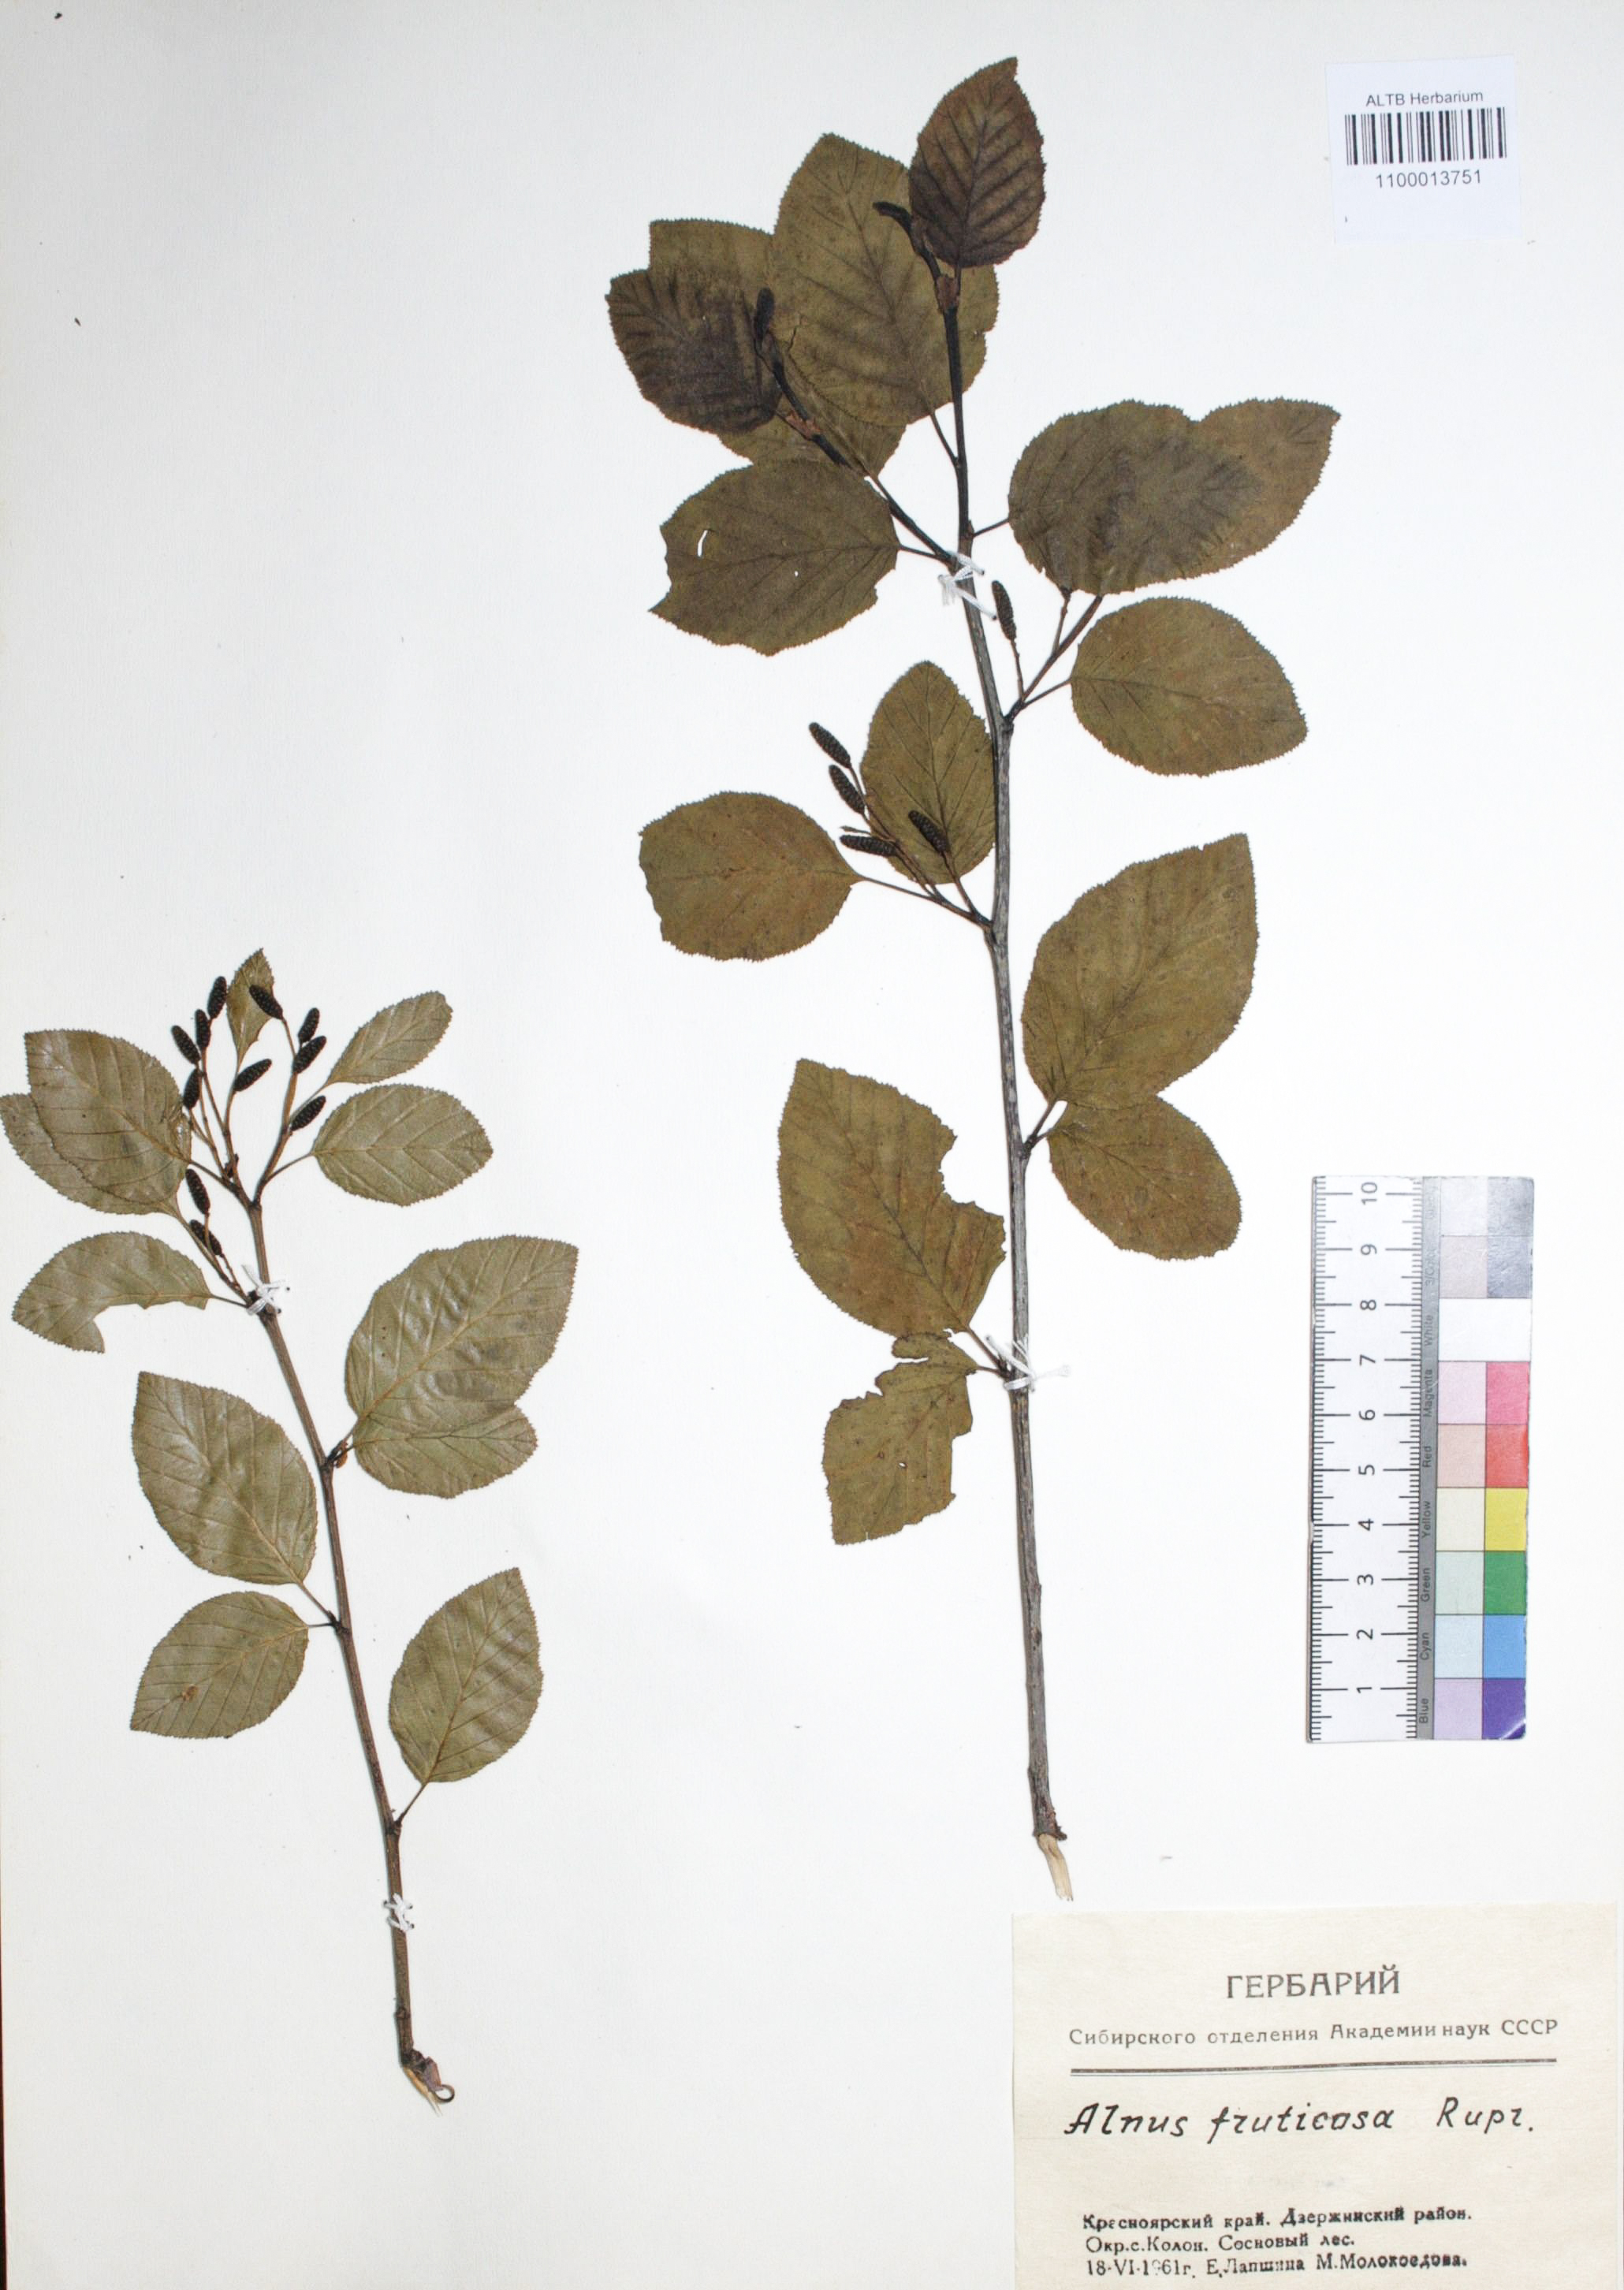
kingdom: Plantae
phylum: Tracheophyta
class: Magnoliopsida
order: Fagales
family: Betulaceae
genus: Alnus
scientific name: Alnus alnobetula
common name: Green alder
